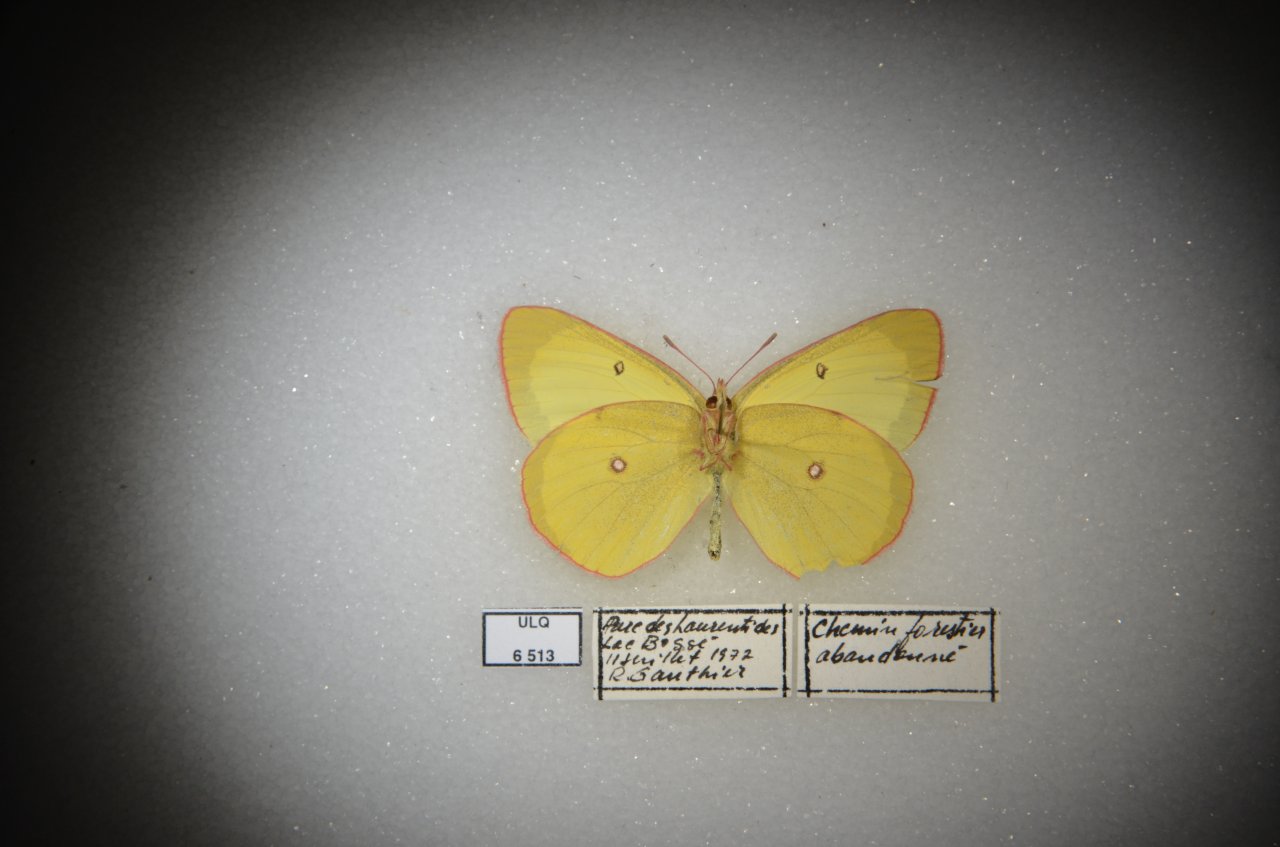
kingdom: Animalia
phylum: Arthropoda
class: Insecta
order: Lepidoptera
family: Pieridae
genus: Colias
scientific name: Colias interior
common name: Pink-edged Sulphur
